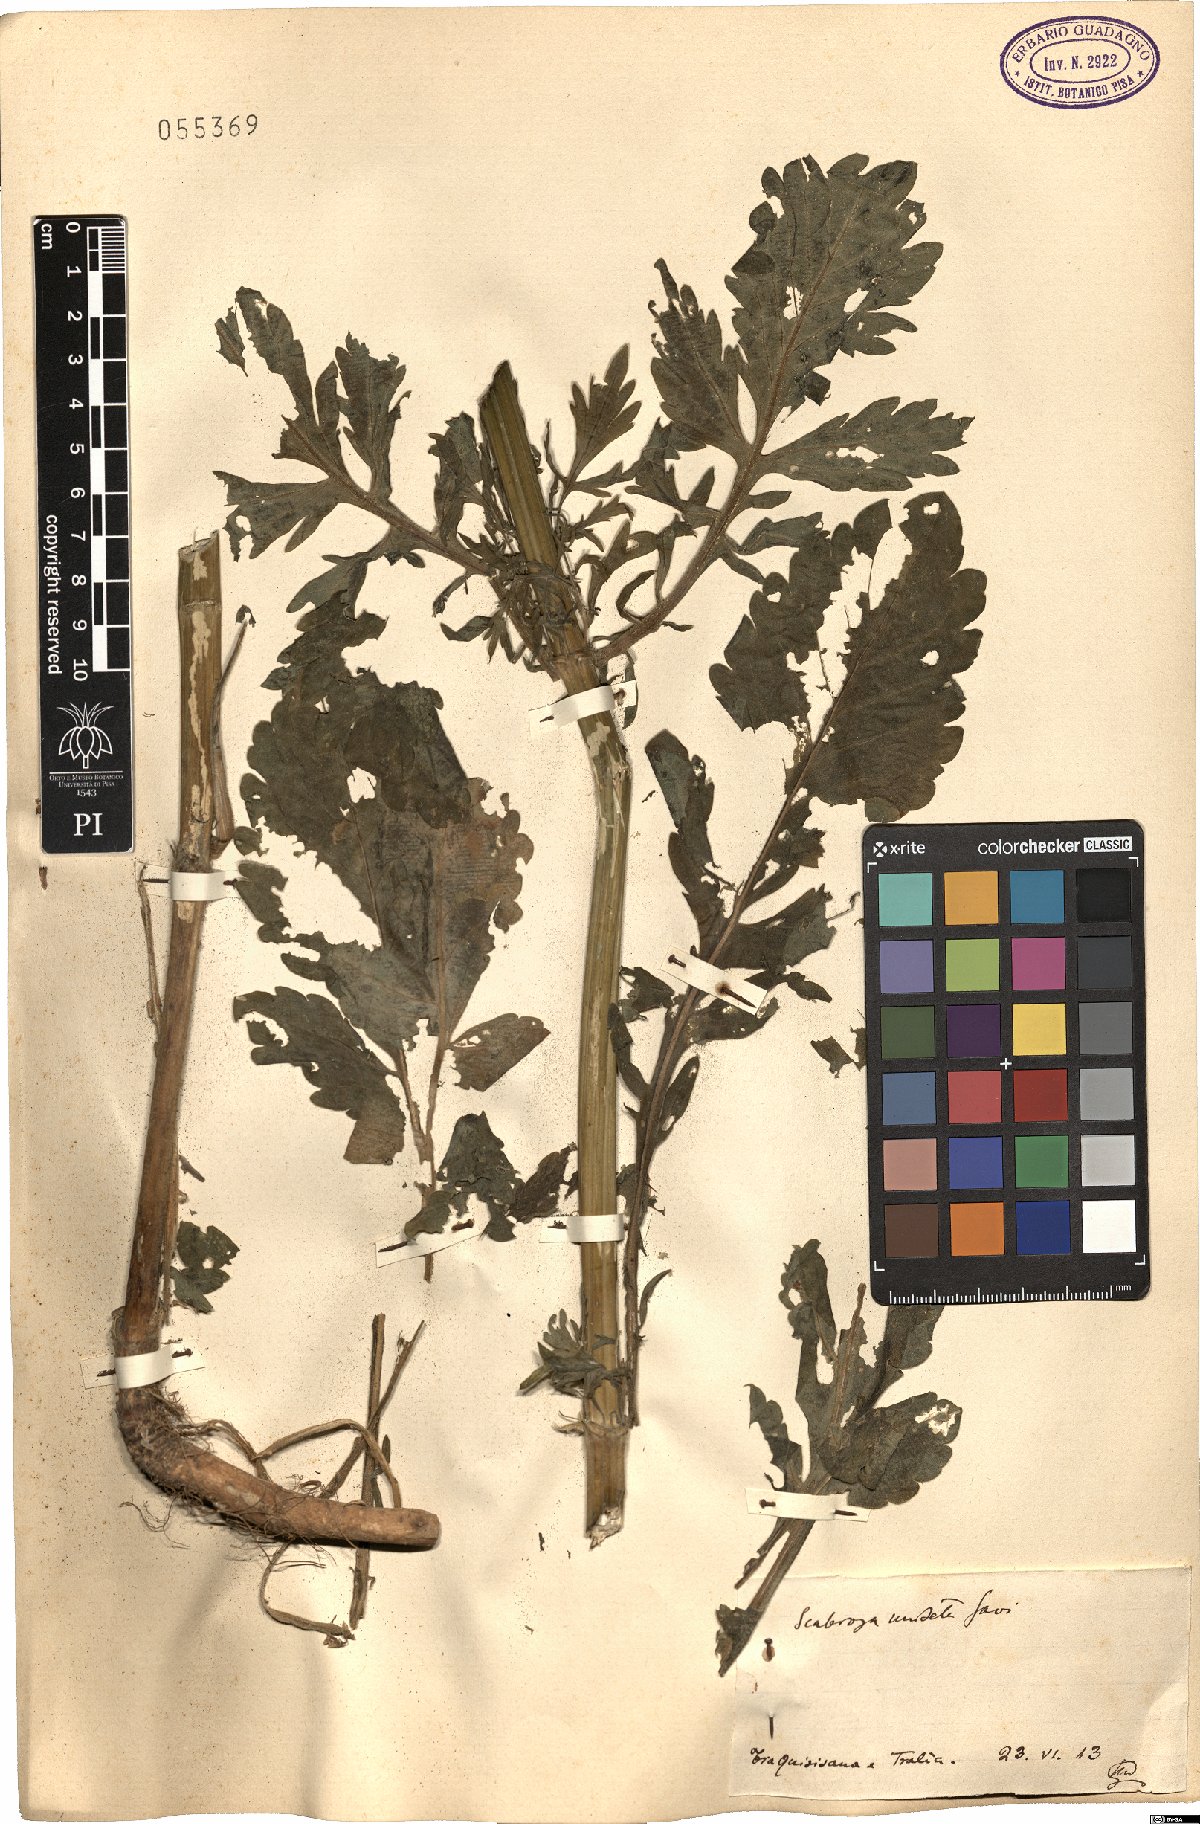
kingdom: Plantae
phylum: Tracheophyta
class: Magnoliopsida
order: Dipsacales
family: Caprifoliaceae
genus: Scabiosa
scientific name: Scabiosa columbaria
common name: Small scabious
